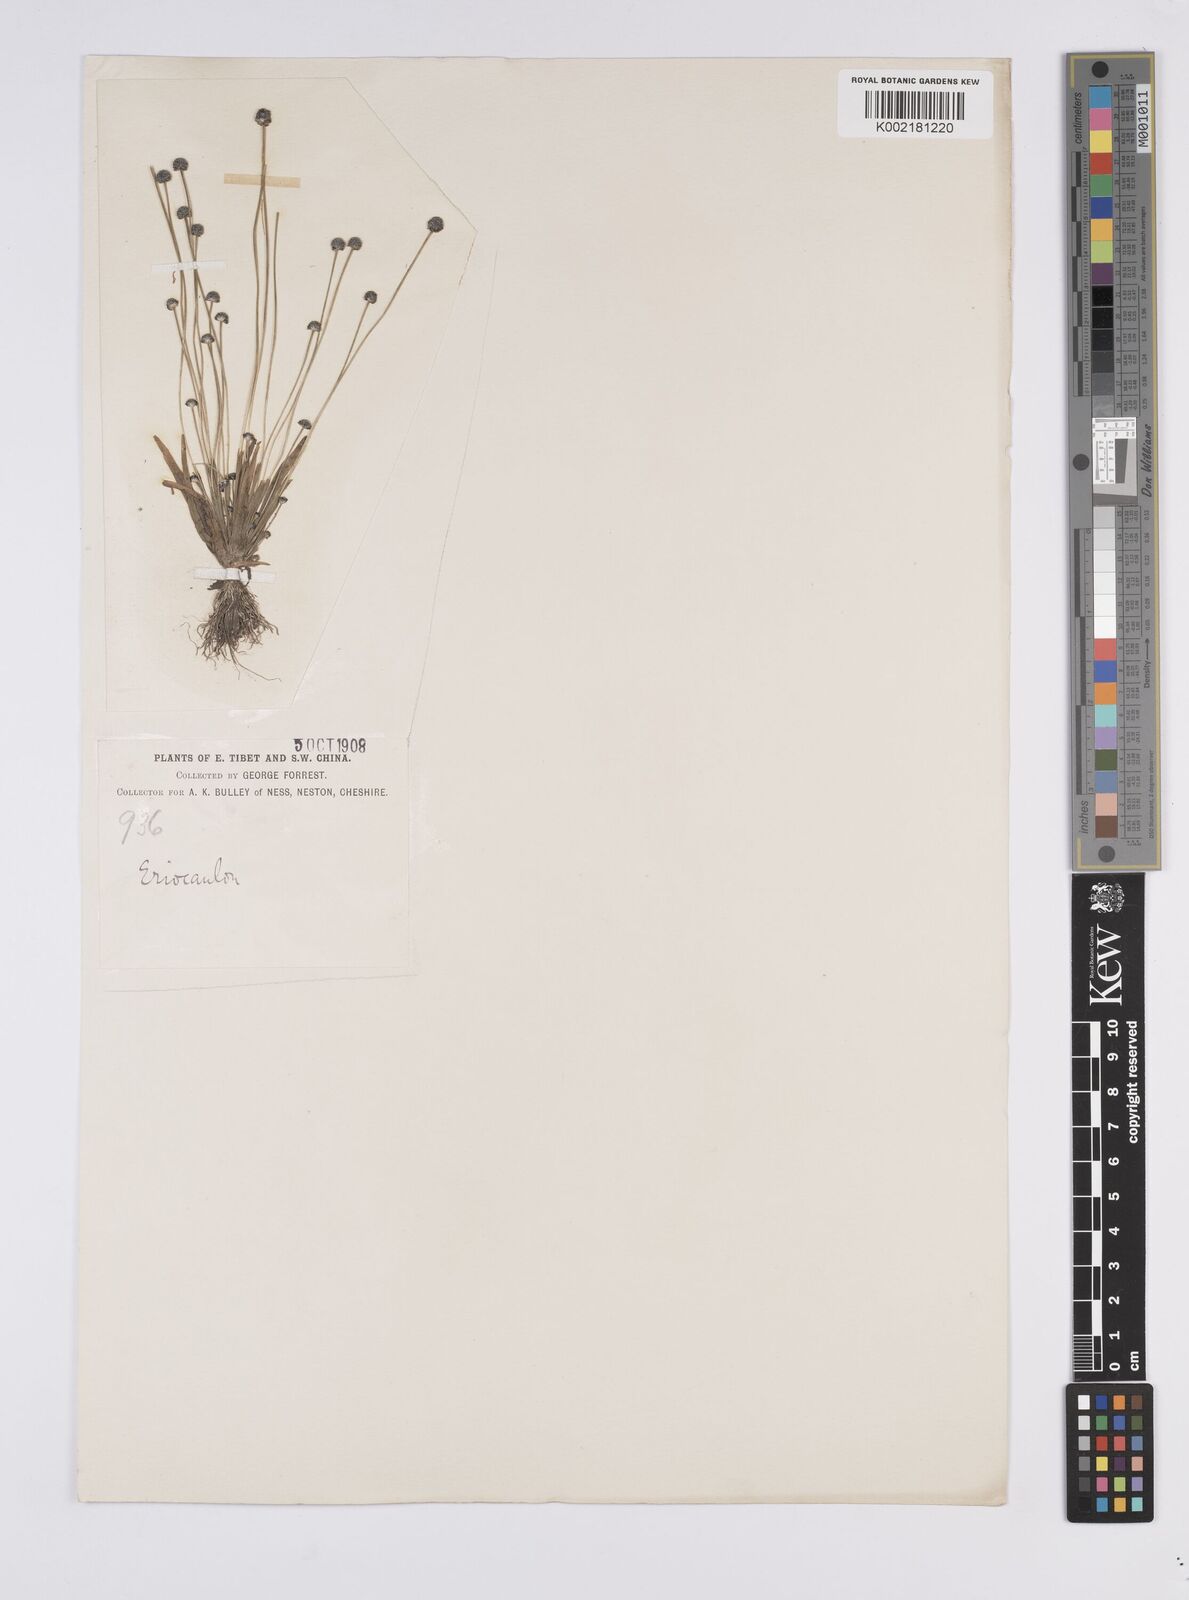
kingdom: Plantae
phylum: Tracheophyta
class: Liliopsida
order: Poales
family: Eriocaulaceae
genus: Eriocaulon
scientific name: Eriocaulon
